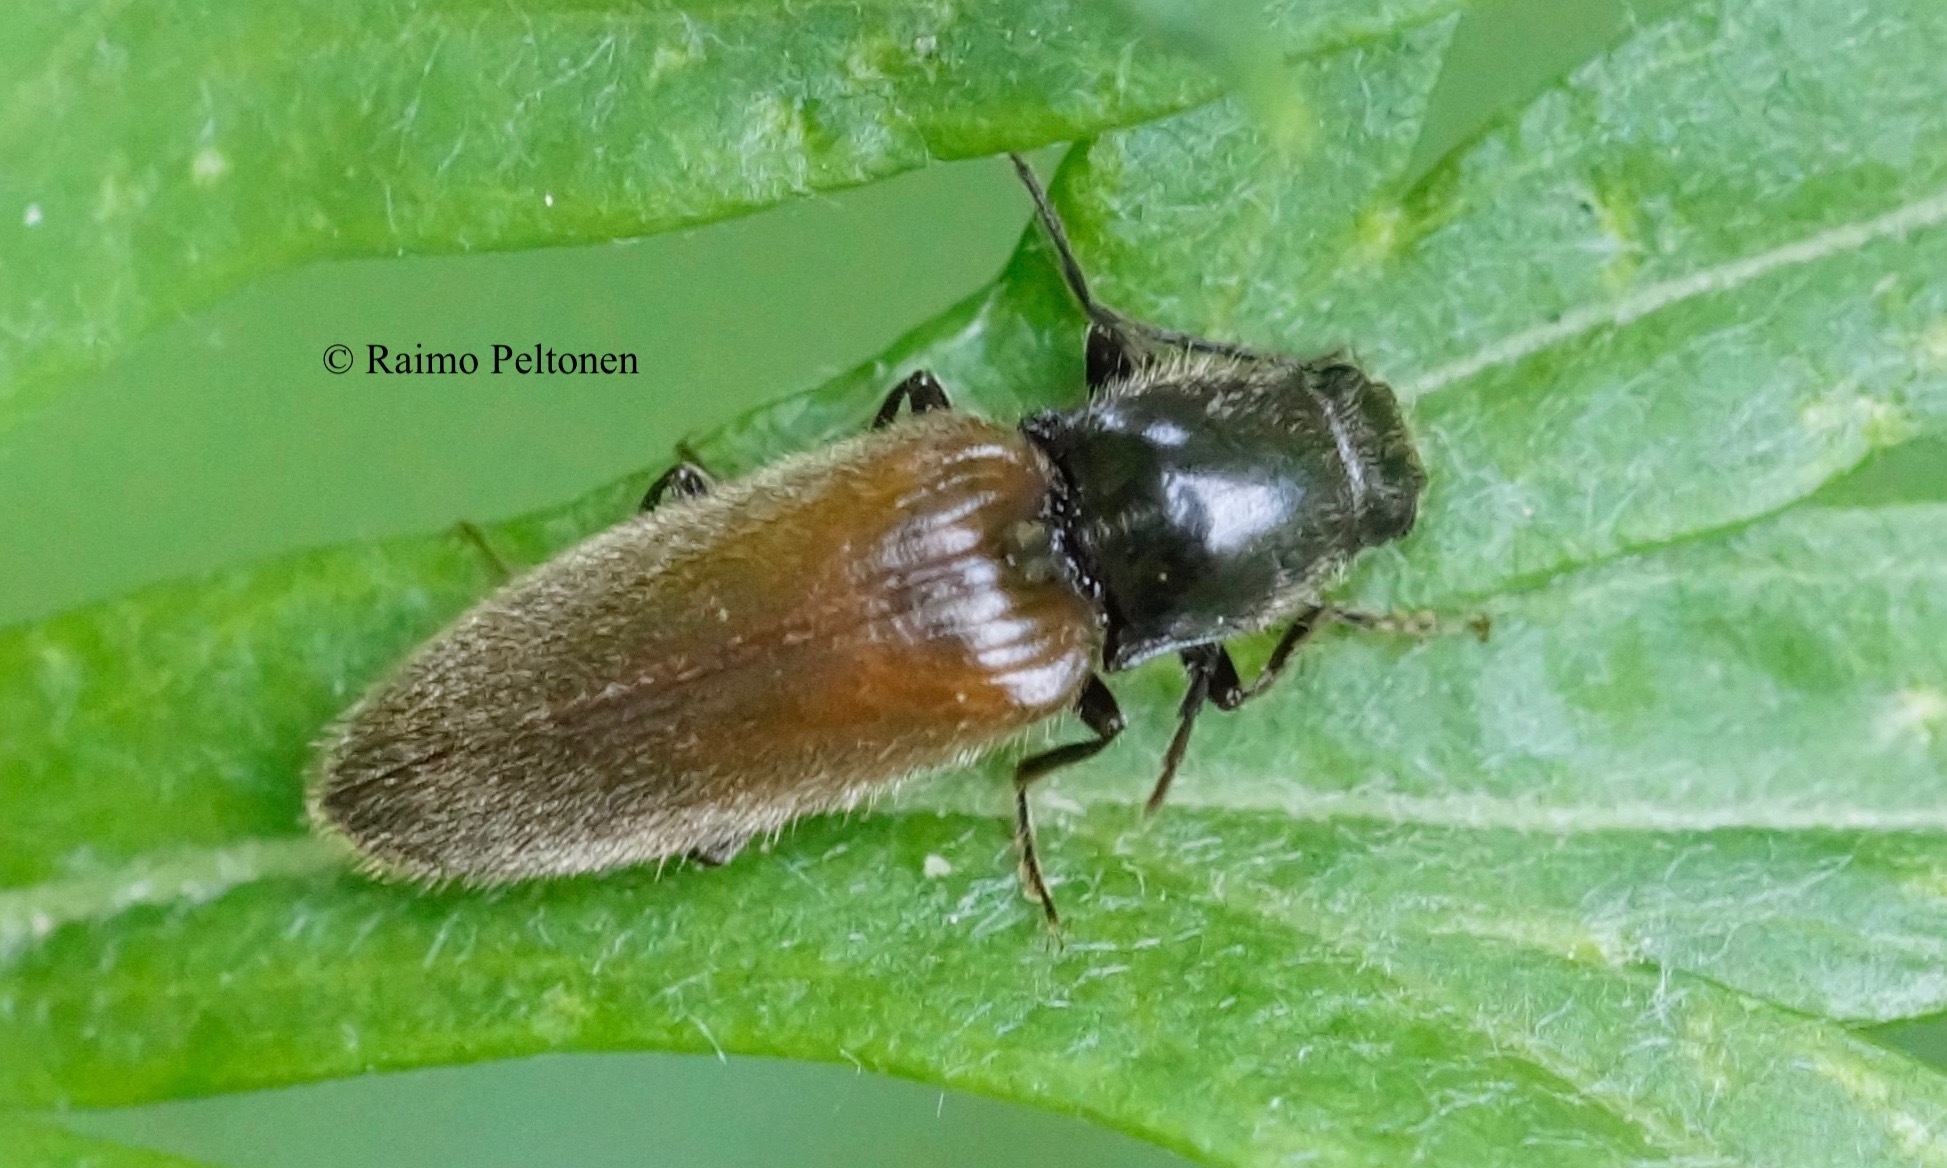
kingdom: Animalia
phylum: Arthropoda
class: Insecta
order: Coleoptera
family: Elateridae
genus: Hemicrepidius
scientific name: Hemicrepidius niger
